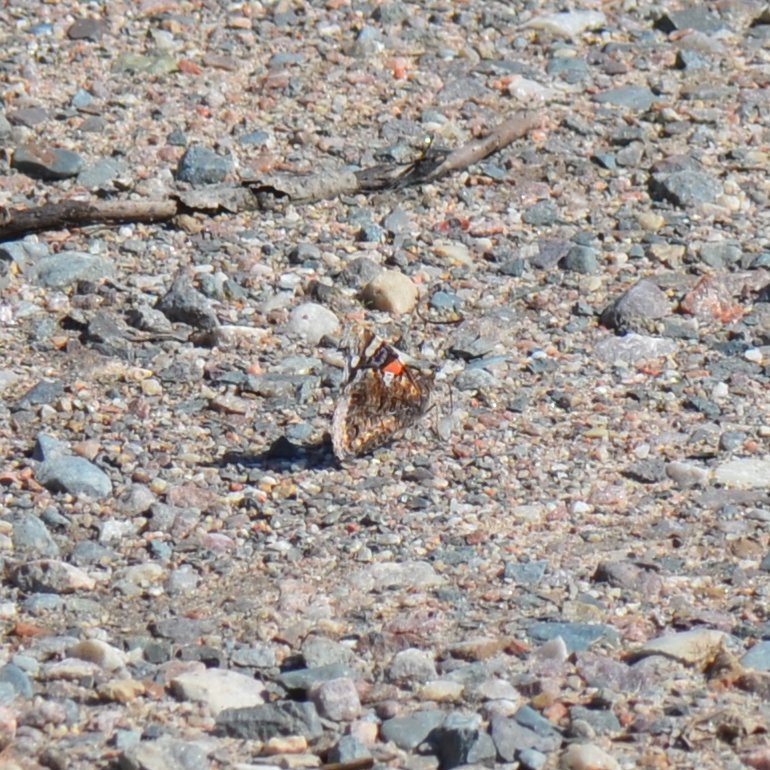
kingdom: Animalia
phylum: Arthropoda
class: Insecta
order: Lepidoptera
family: Nymphalidae
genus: Vanessa
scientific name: Vanessa atalanta
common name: Red Admiral
